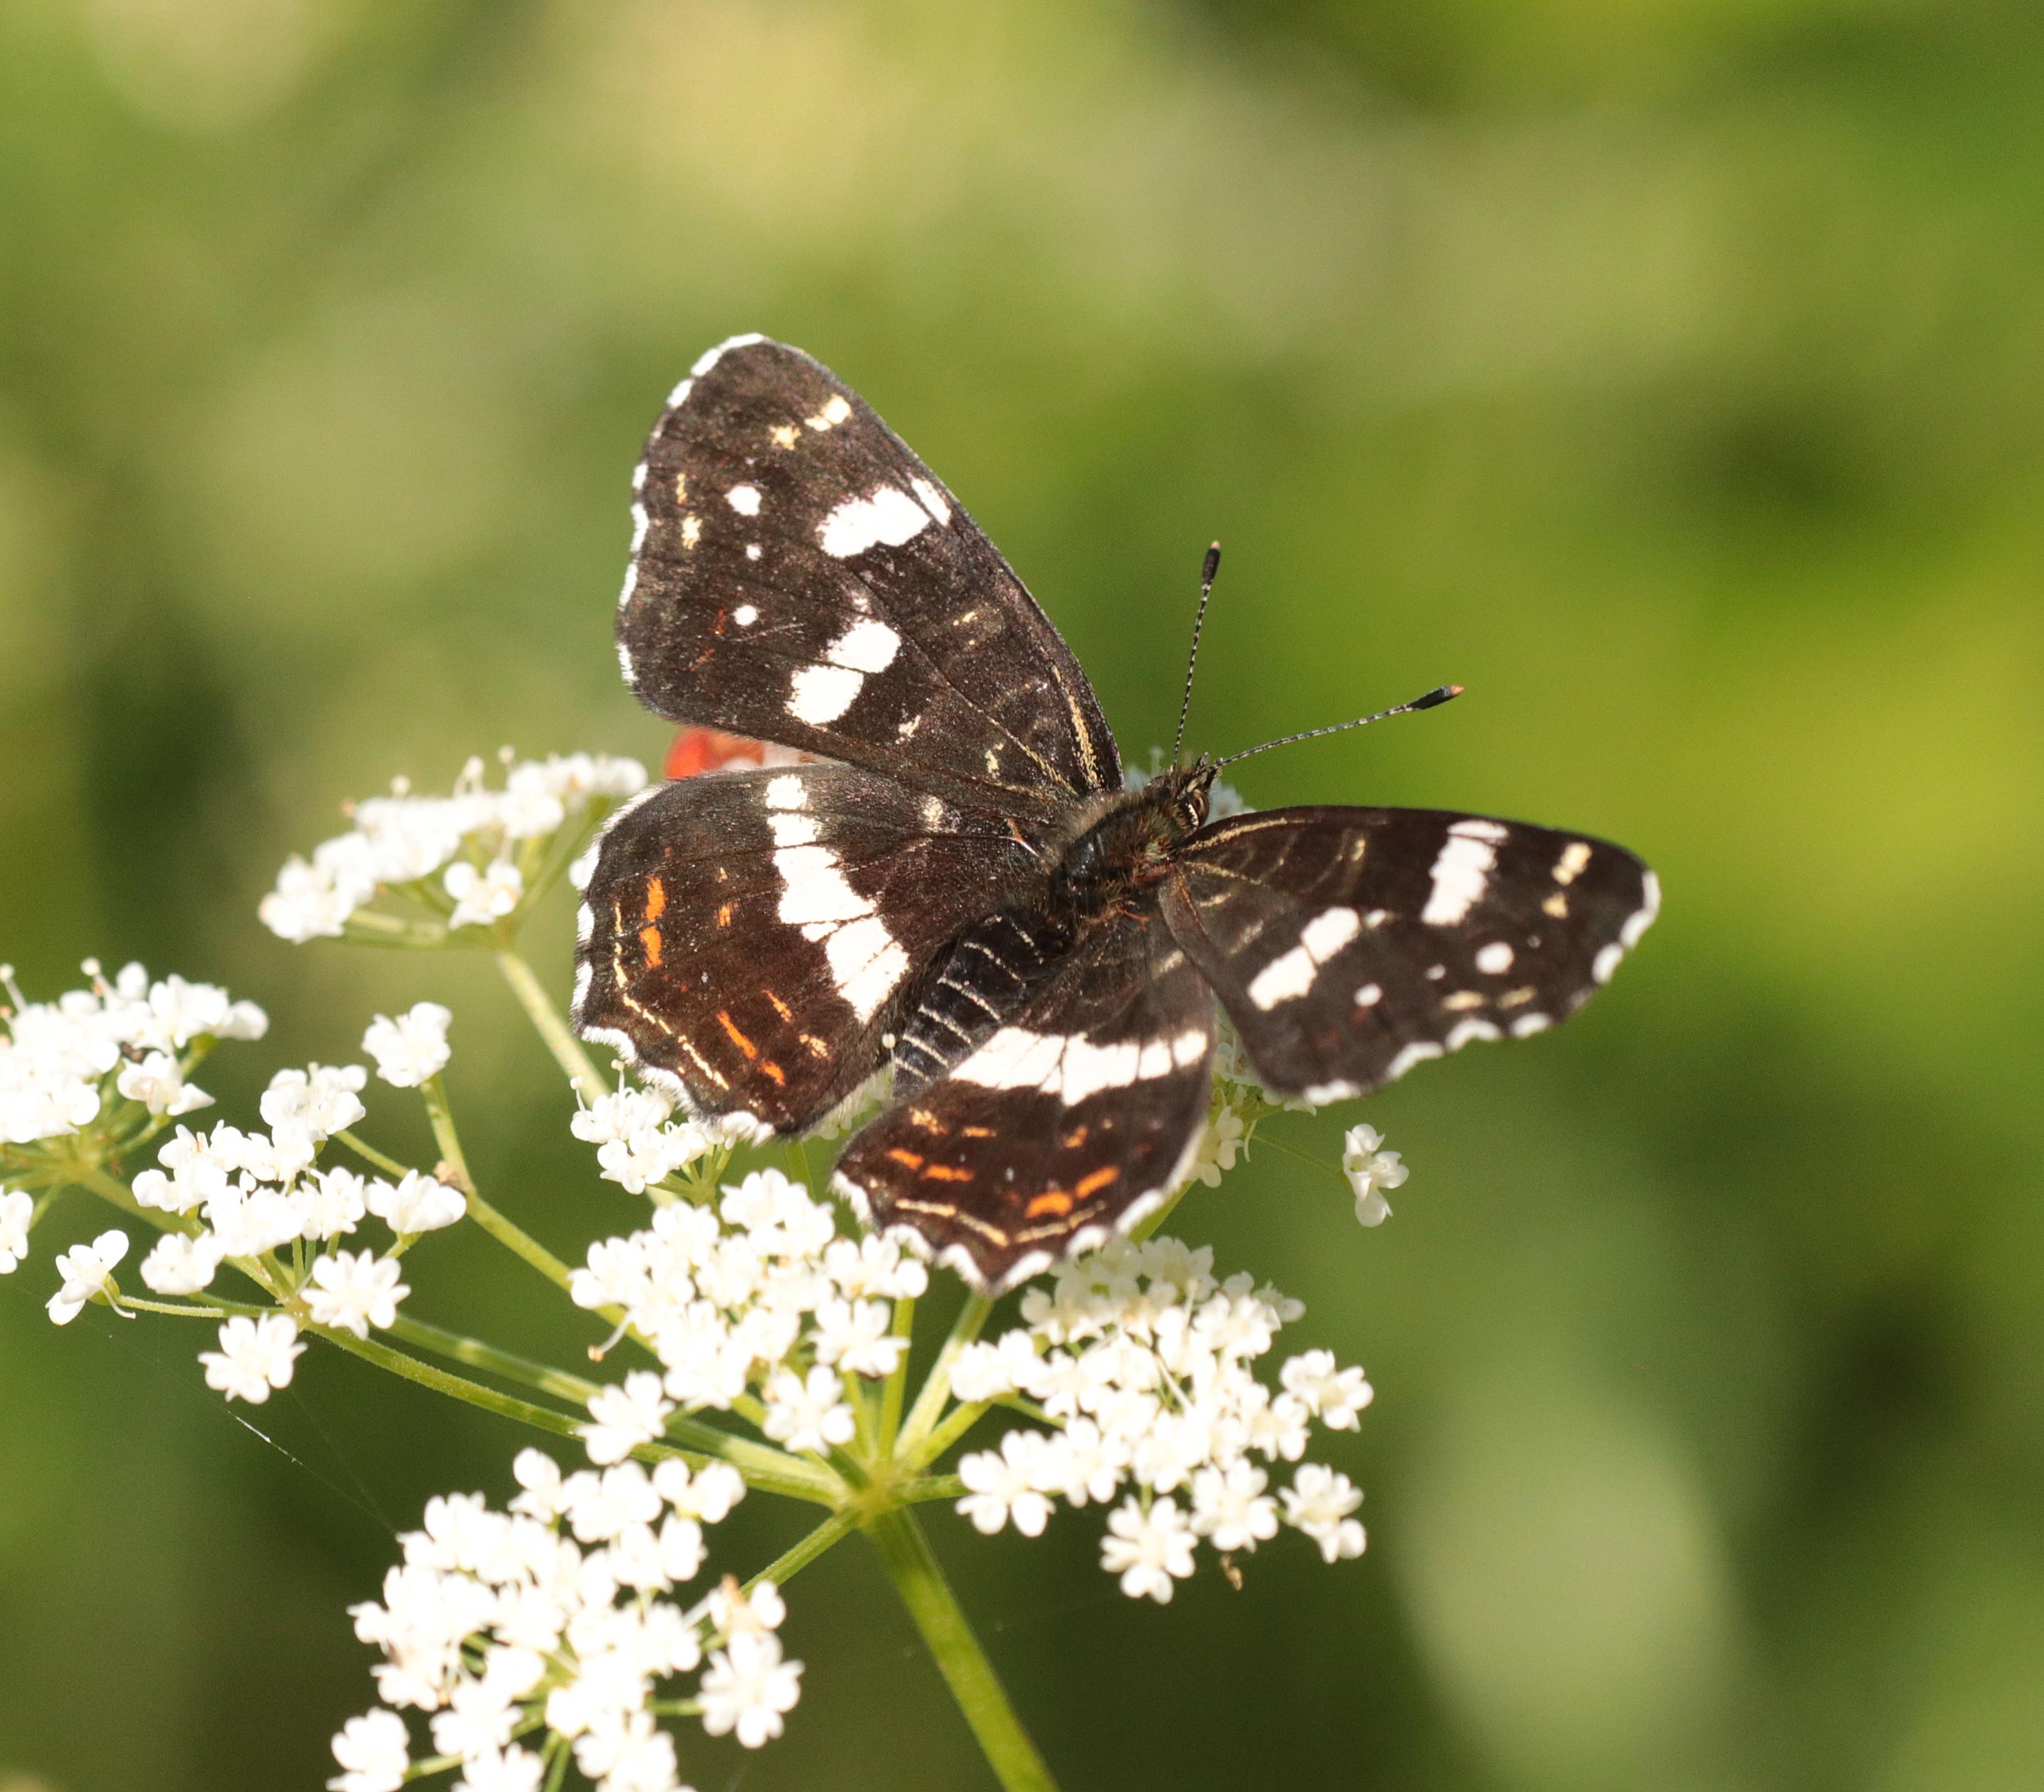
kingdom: Animalia
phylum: Arthropoda
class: Insecta
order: Lepidoptera
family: Nymphalidae
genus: Araschnia
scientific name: Araschnia levana
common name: Nældesommerfugl
